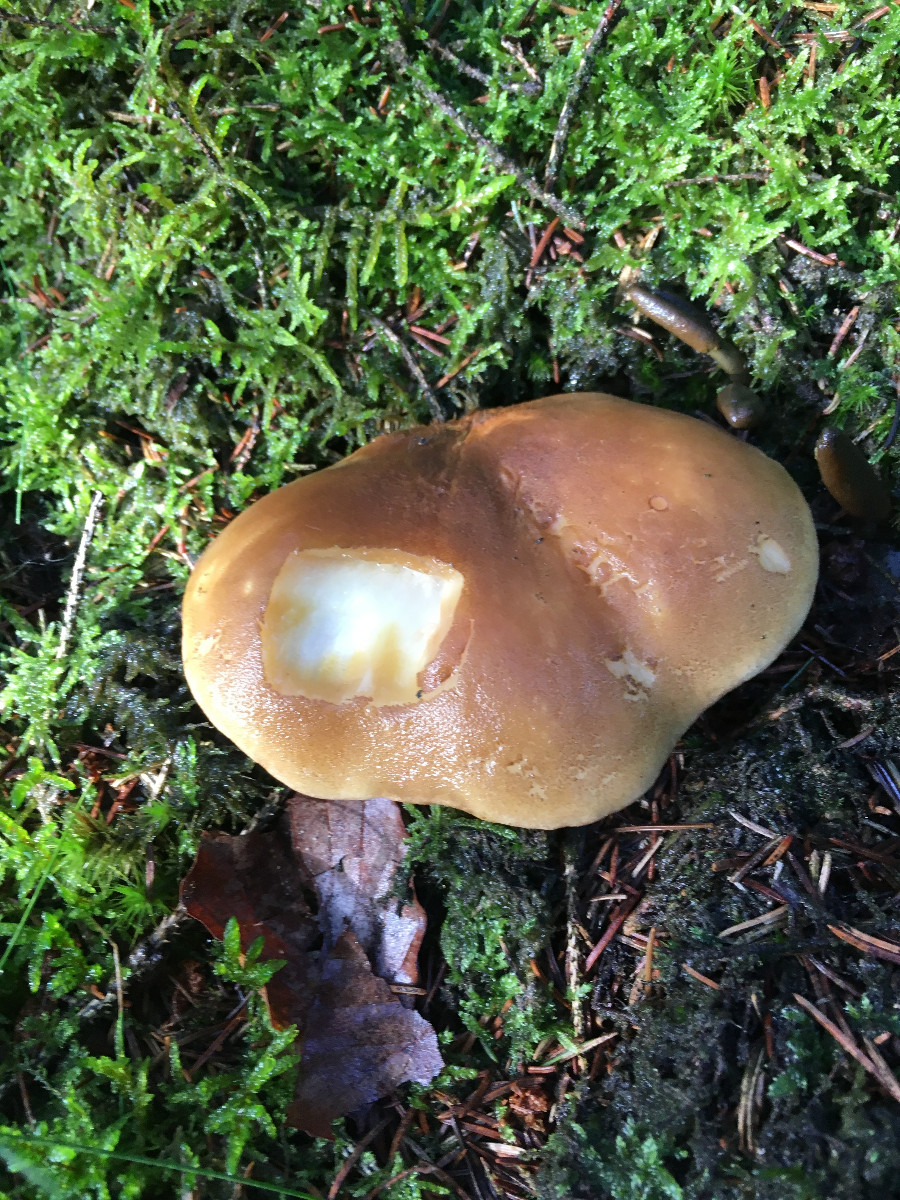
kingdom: Fungi
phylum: Basidiomycota
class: Agaricomycetes
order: Boletales
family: Tapinellaceae
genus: Tapinella
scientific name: Tapinella atrotomentosa
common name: sortfiltet viftesvamp
